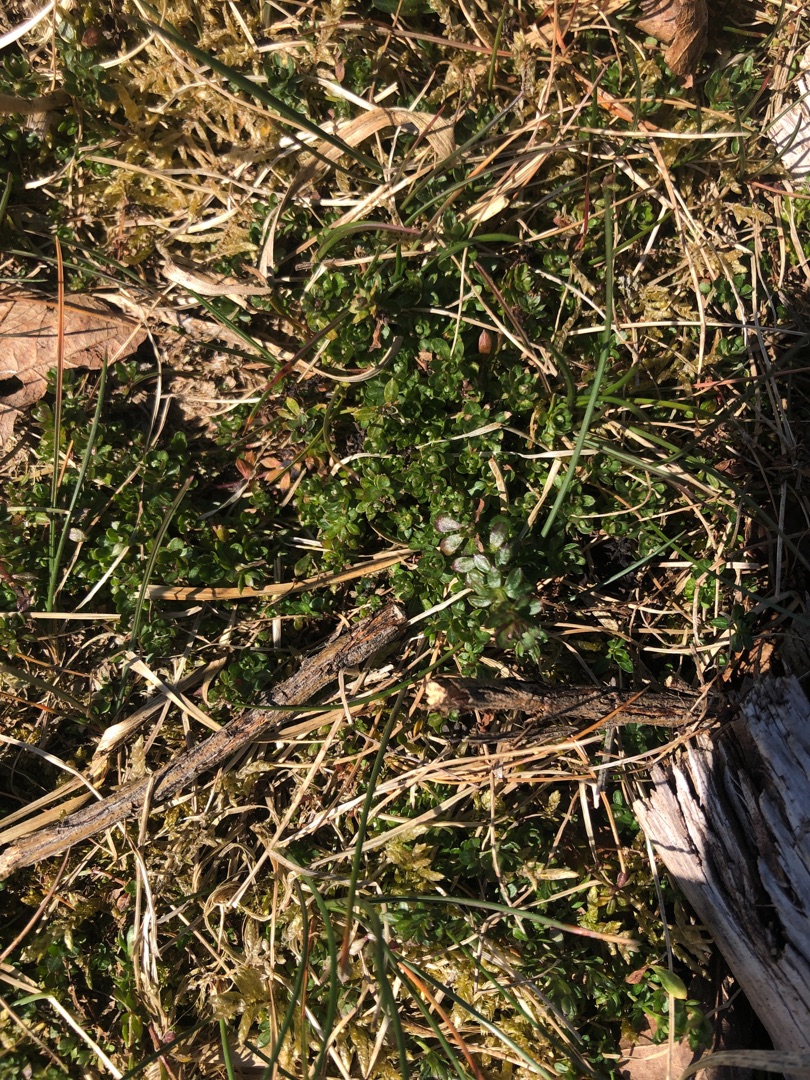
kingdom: Plantae
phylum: Tracheophyta
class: Magnoliopsida
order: Gentianales
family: Rubiaceae
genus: Galium
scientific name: Galium saxatile
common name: Lyng-snerre
